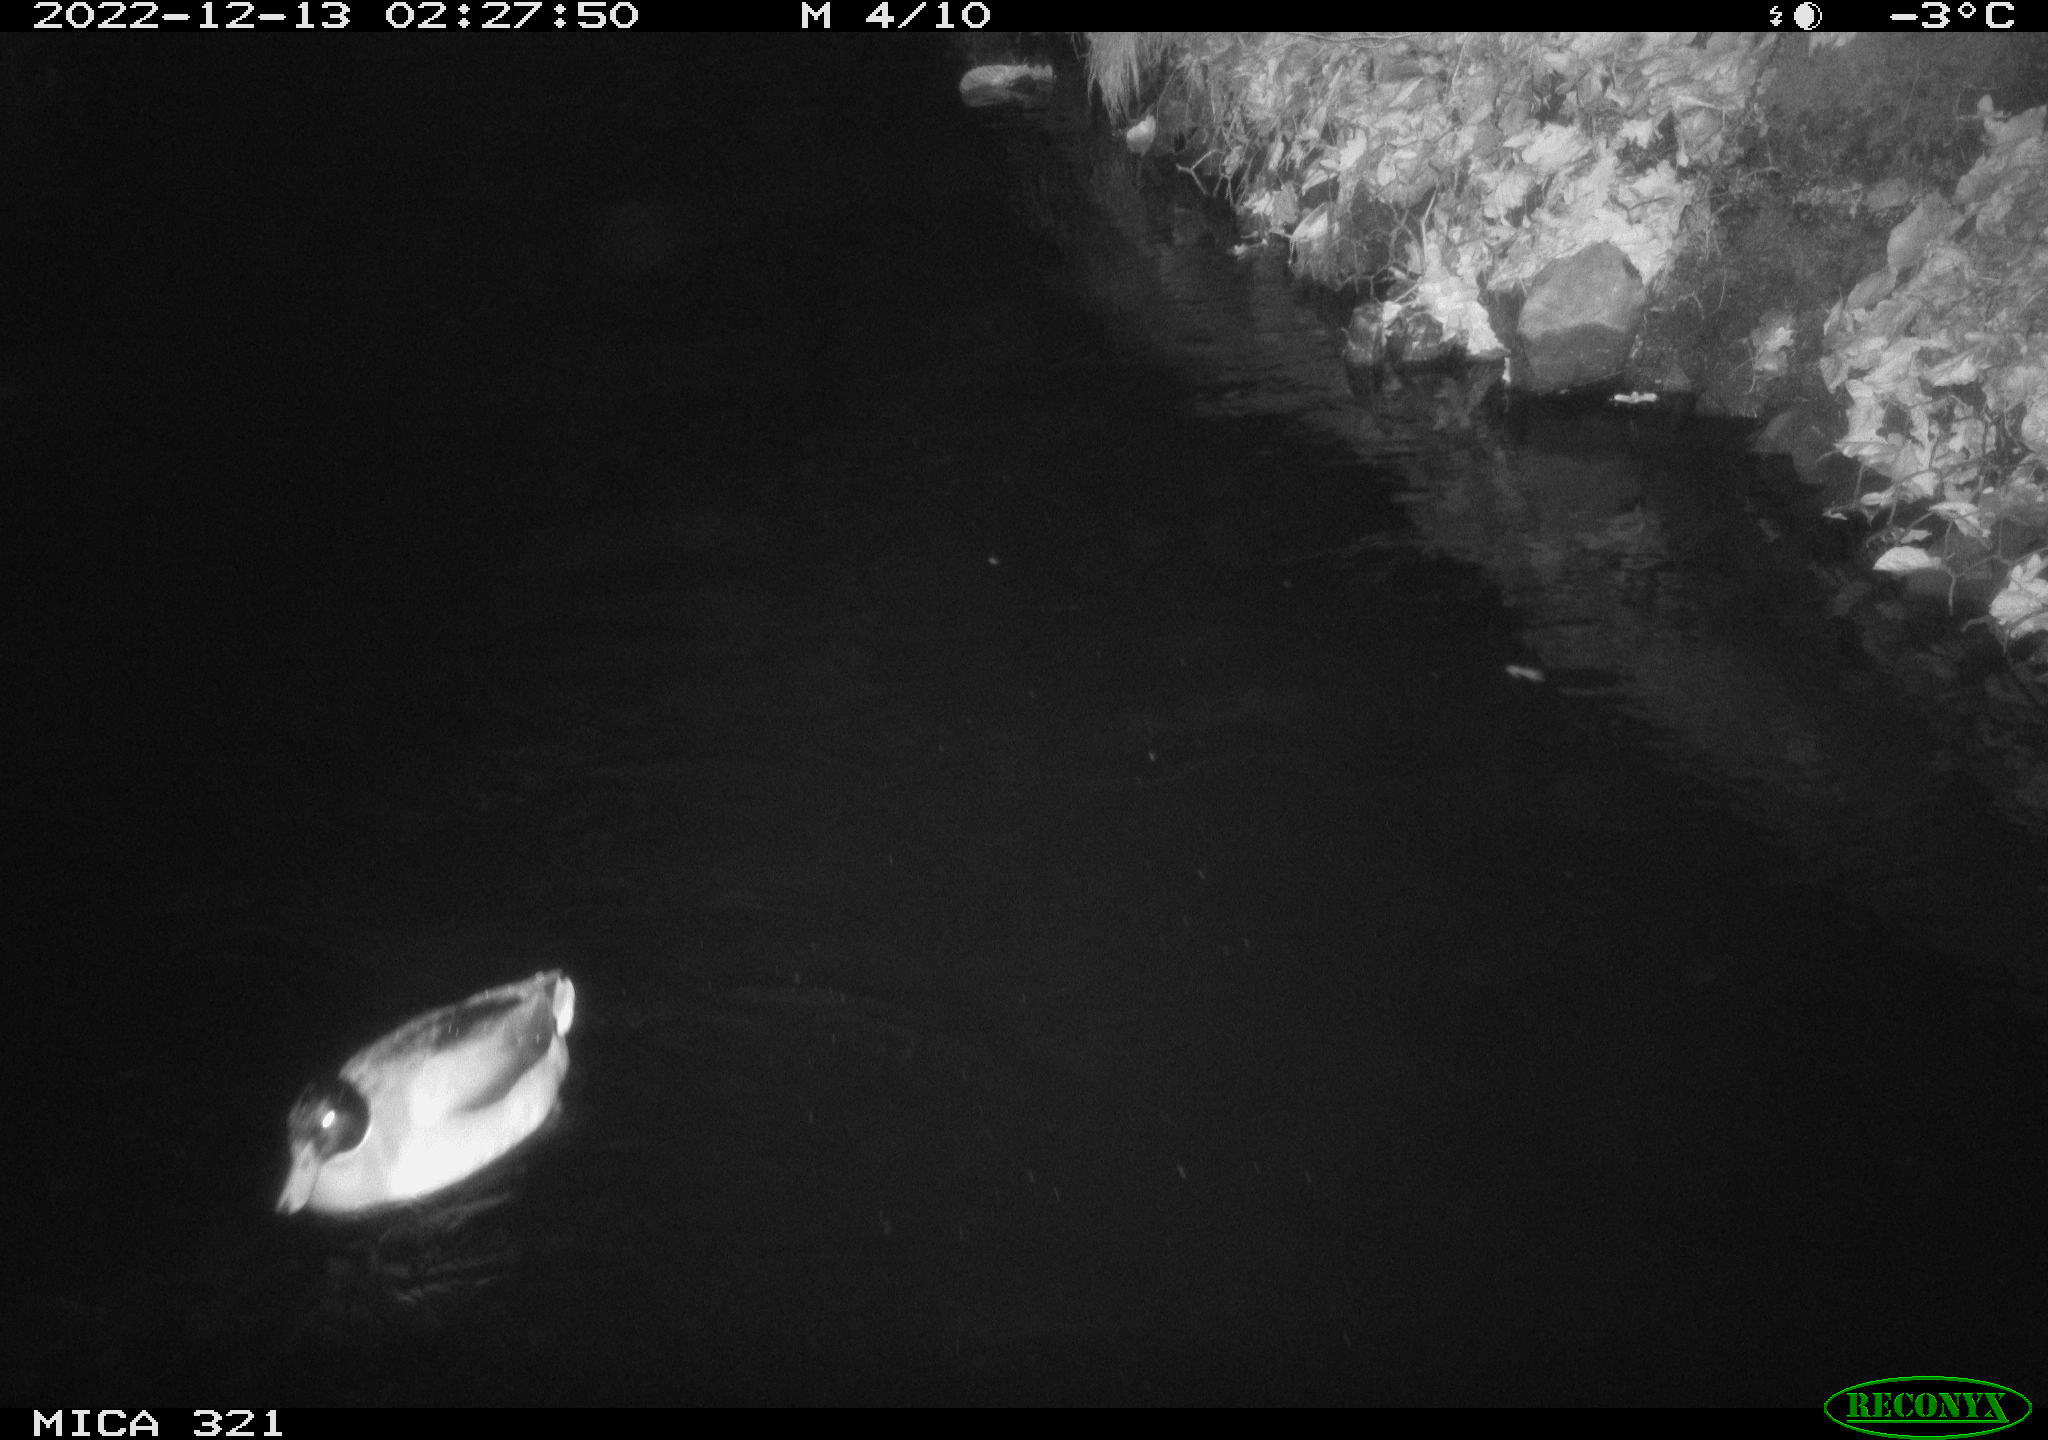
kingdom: Animalia
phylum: Chordata
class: Aves
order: Anseriformes
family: Anatidae
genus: Anas
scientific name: Anas
